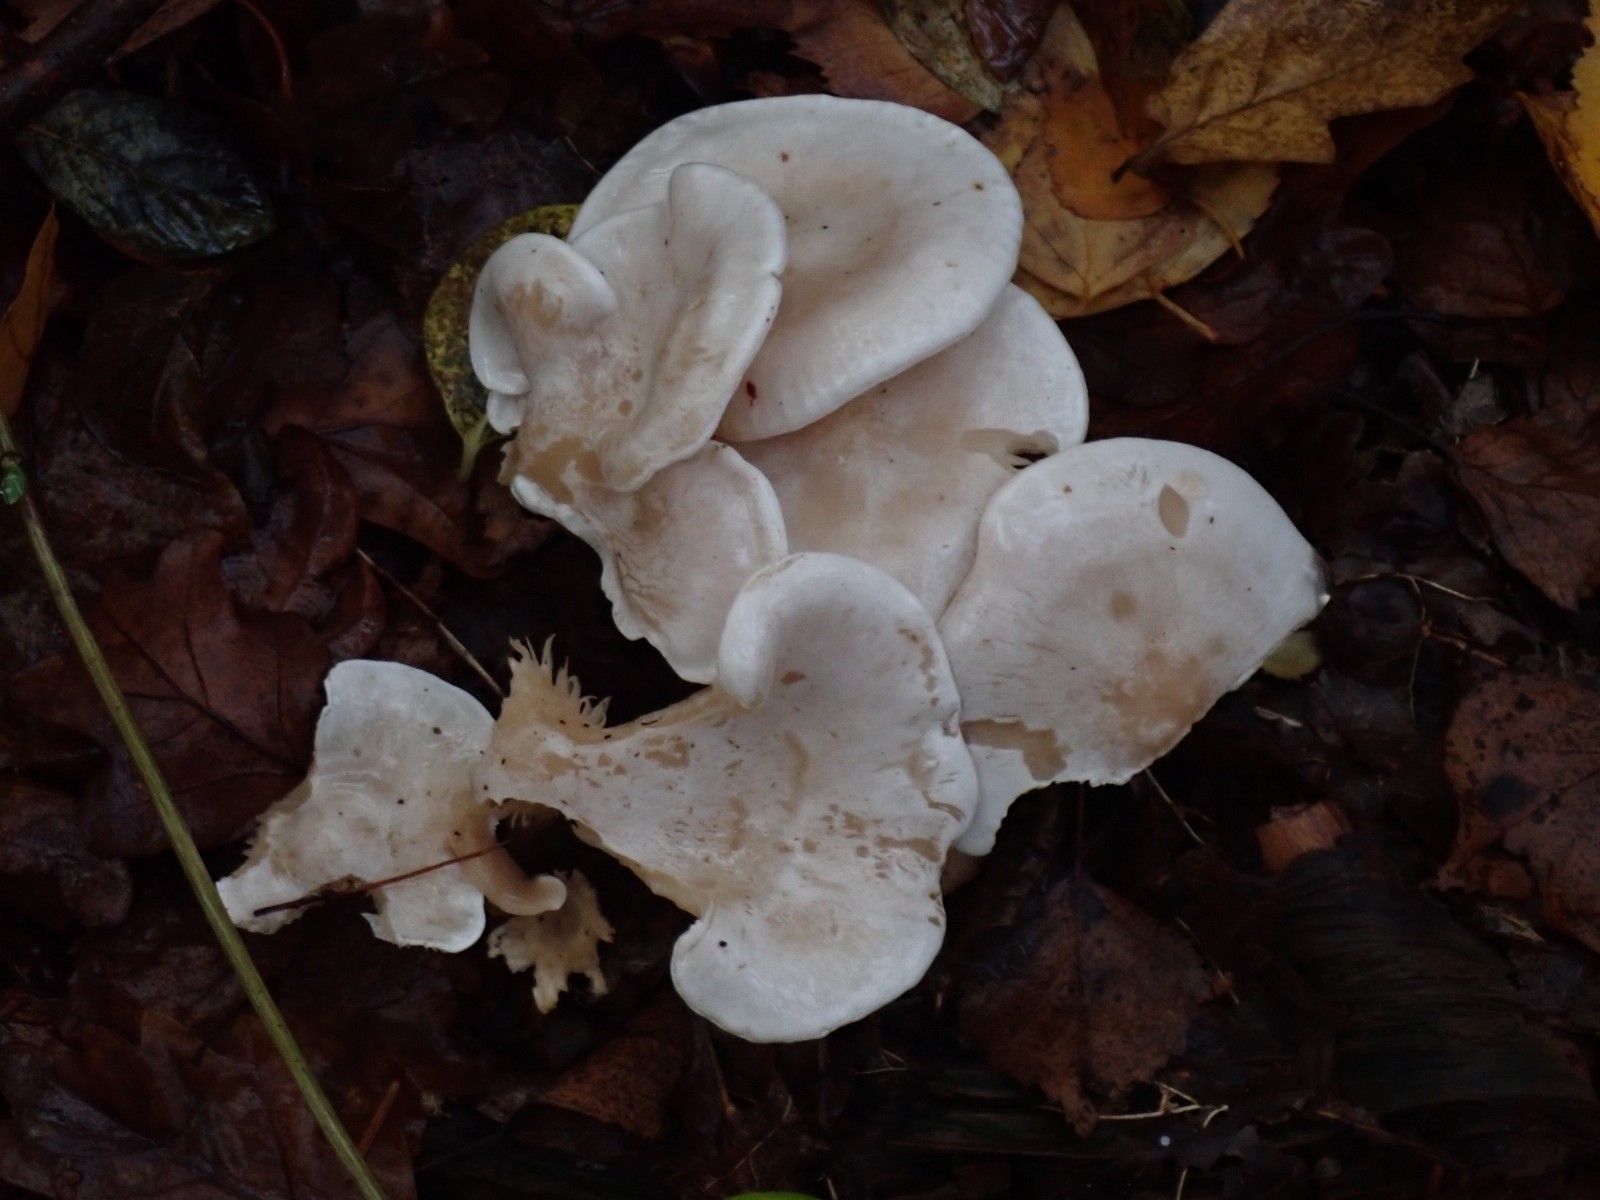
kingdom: Fungi
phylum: Basidiomycota
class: Agaricomycetes
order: Agaricales
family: Tricholomataceae
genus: Clitocybe
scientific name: Clitocybe
